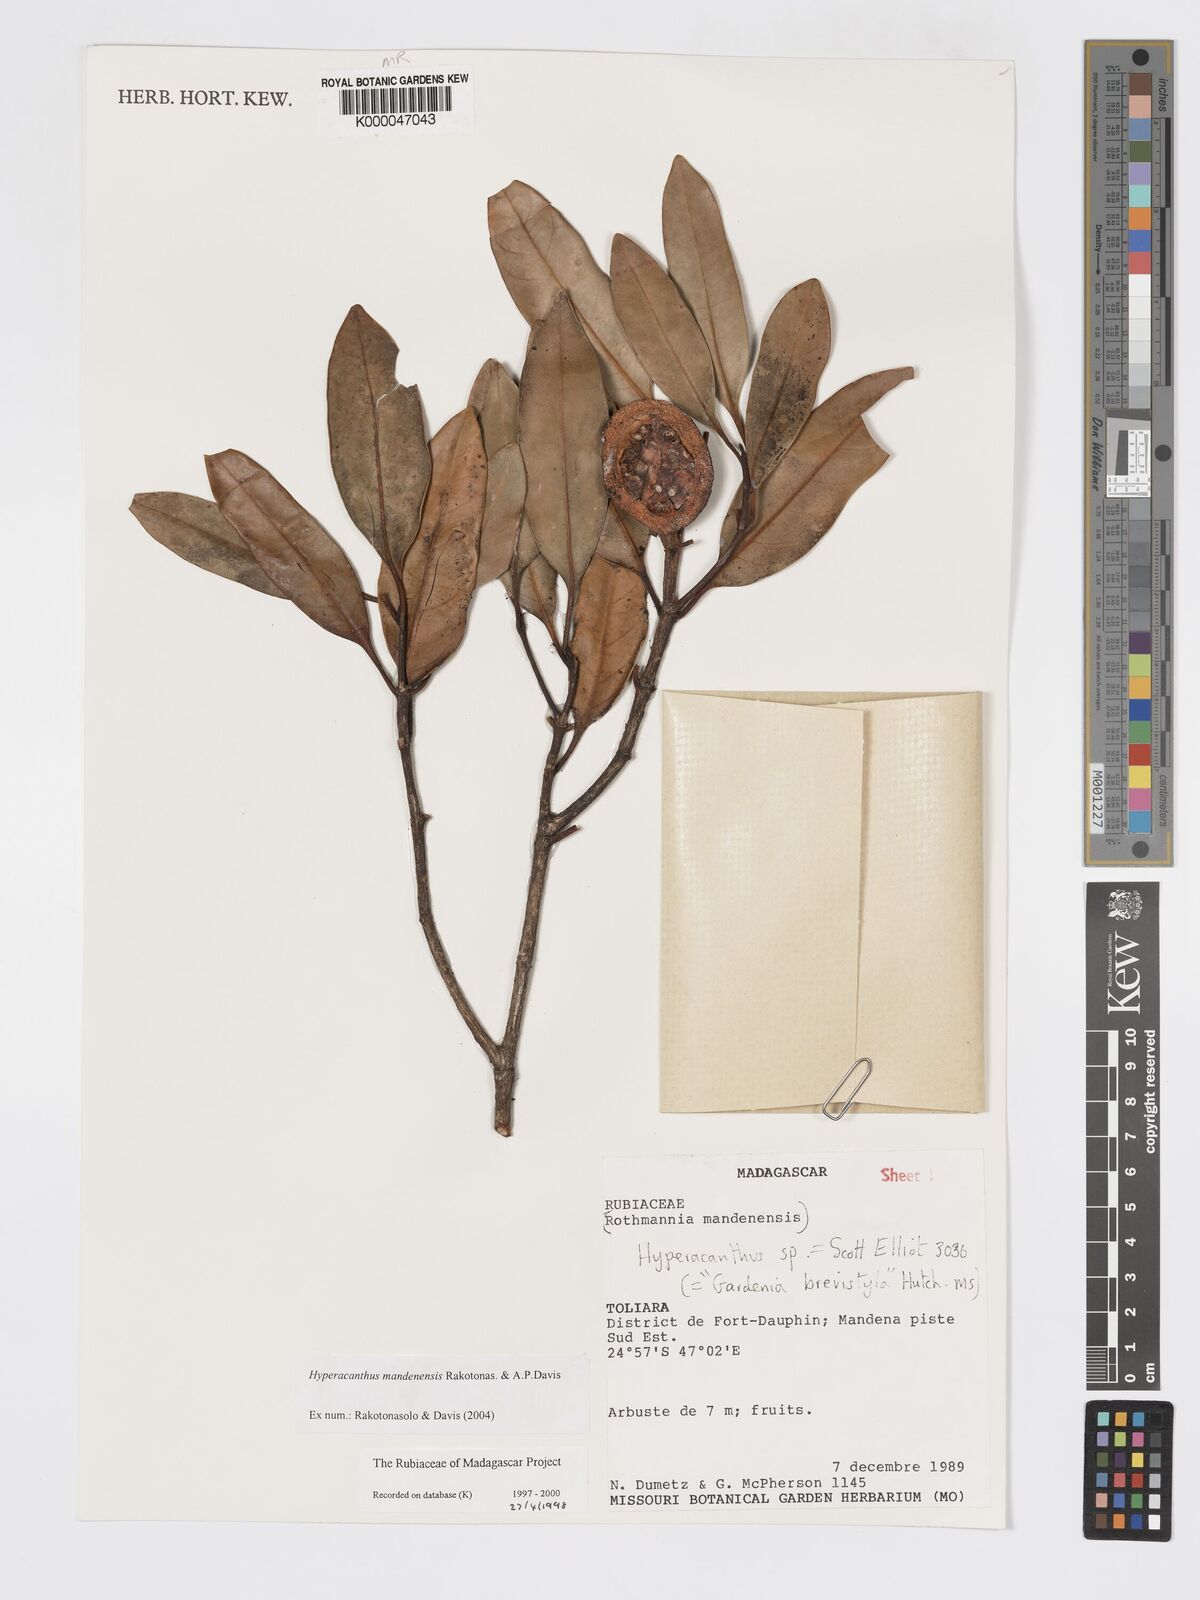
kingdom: Plantae
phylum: Tracheophyta
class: Magnoliopsida
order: Gentianales
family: Rubiaceae
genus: Hyperacanthus
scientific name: Hyperacanthus mandenensis
